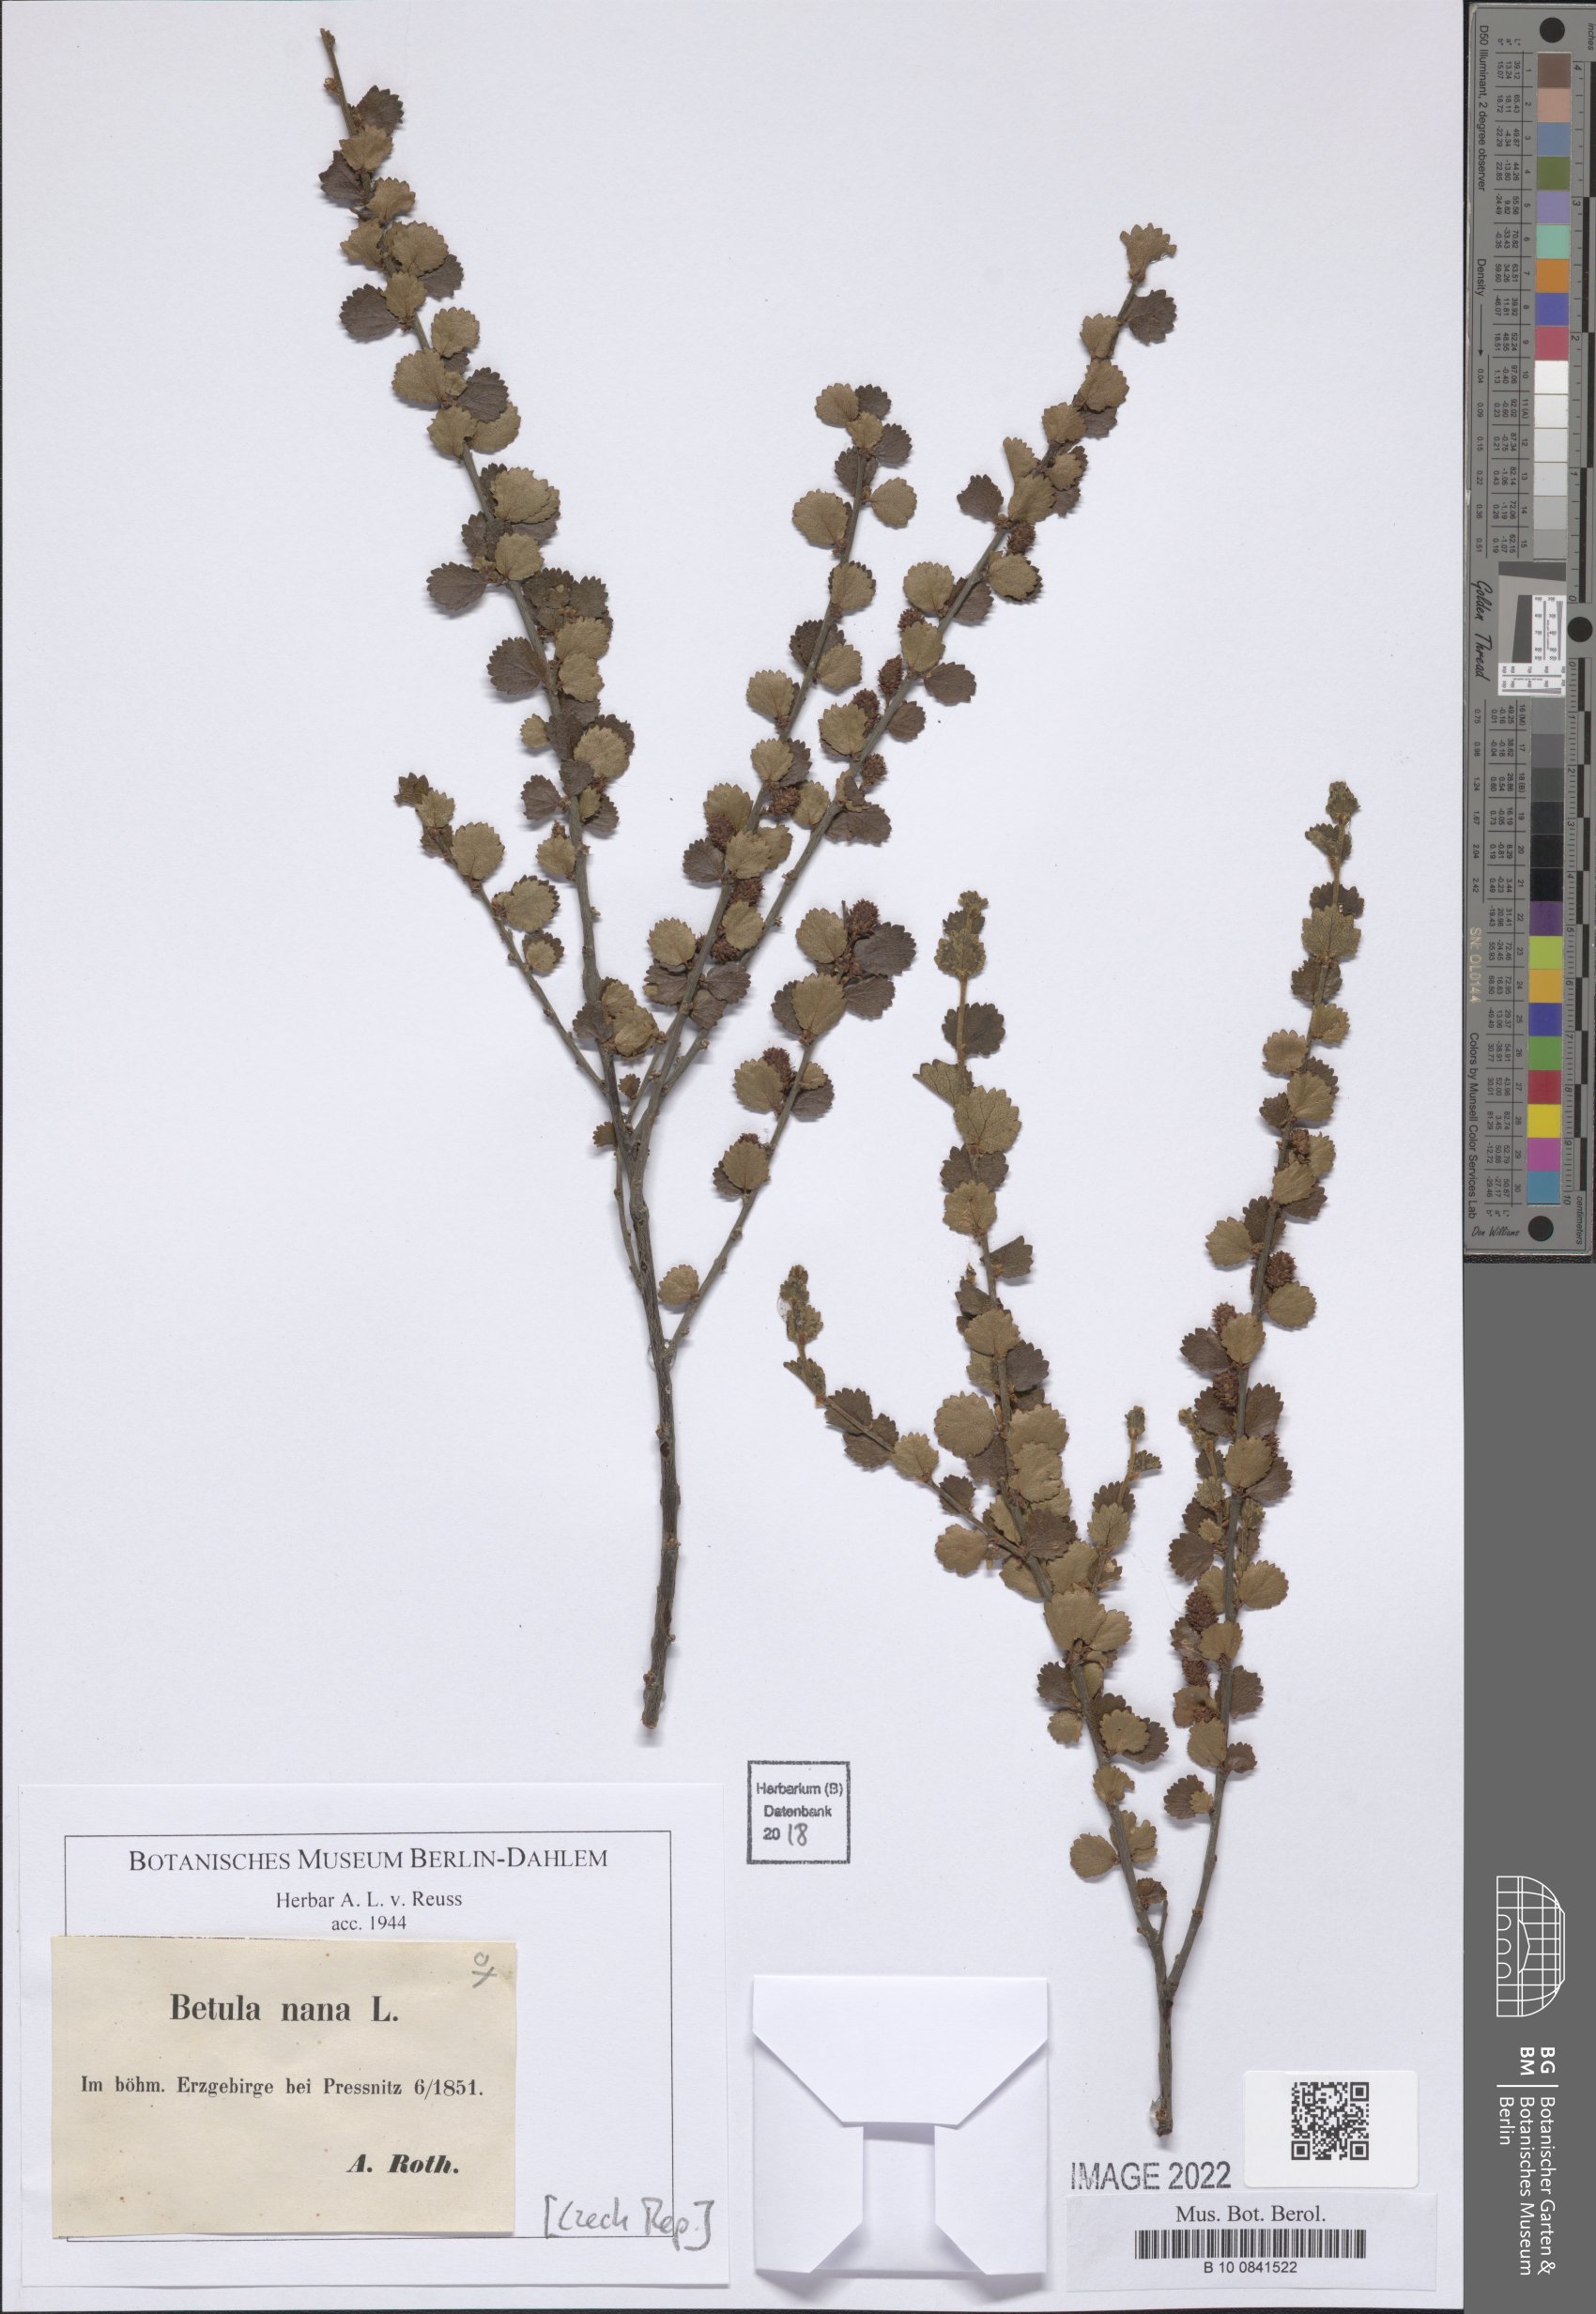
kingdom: Plantae
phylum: Tracheophyta
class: Magnoliopsida
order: Fagales
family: Betulaceae
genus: Betula
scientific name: Betula nana
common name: Arctic dwarf birch
